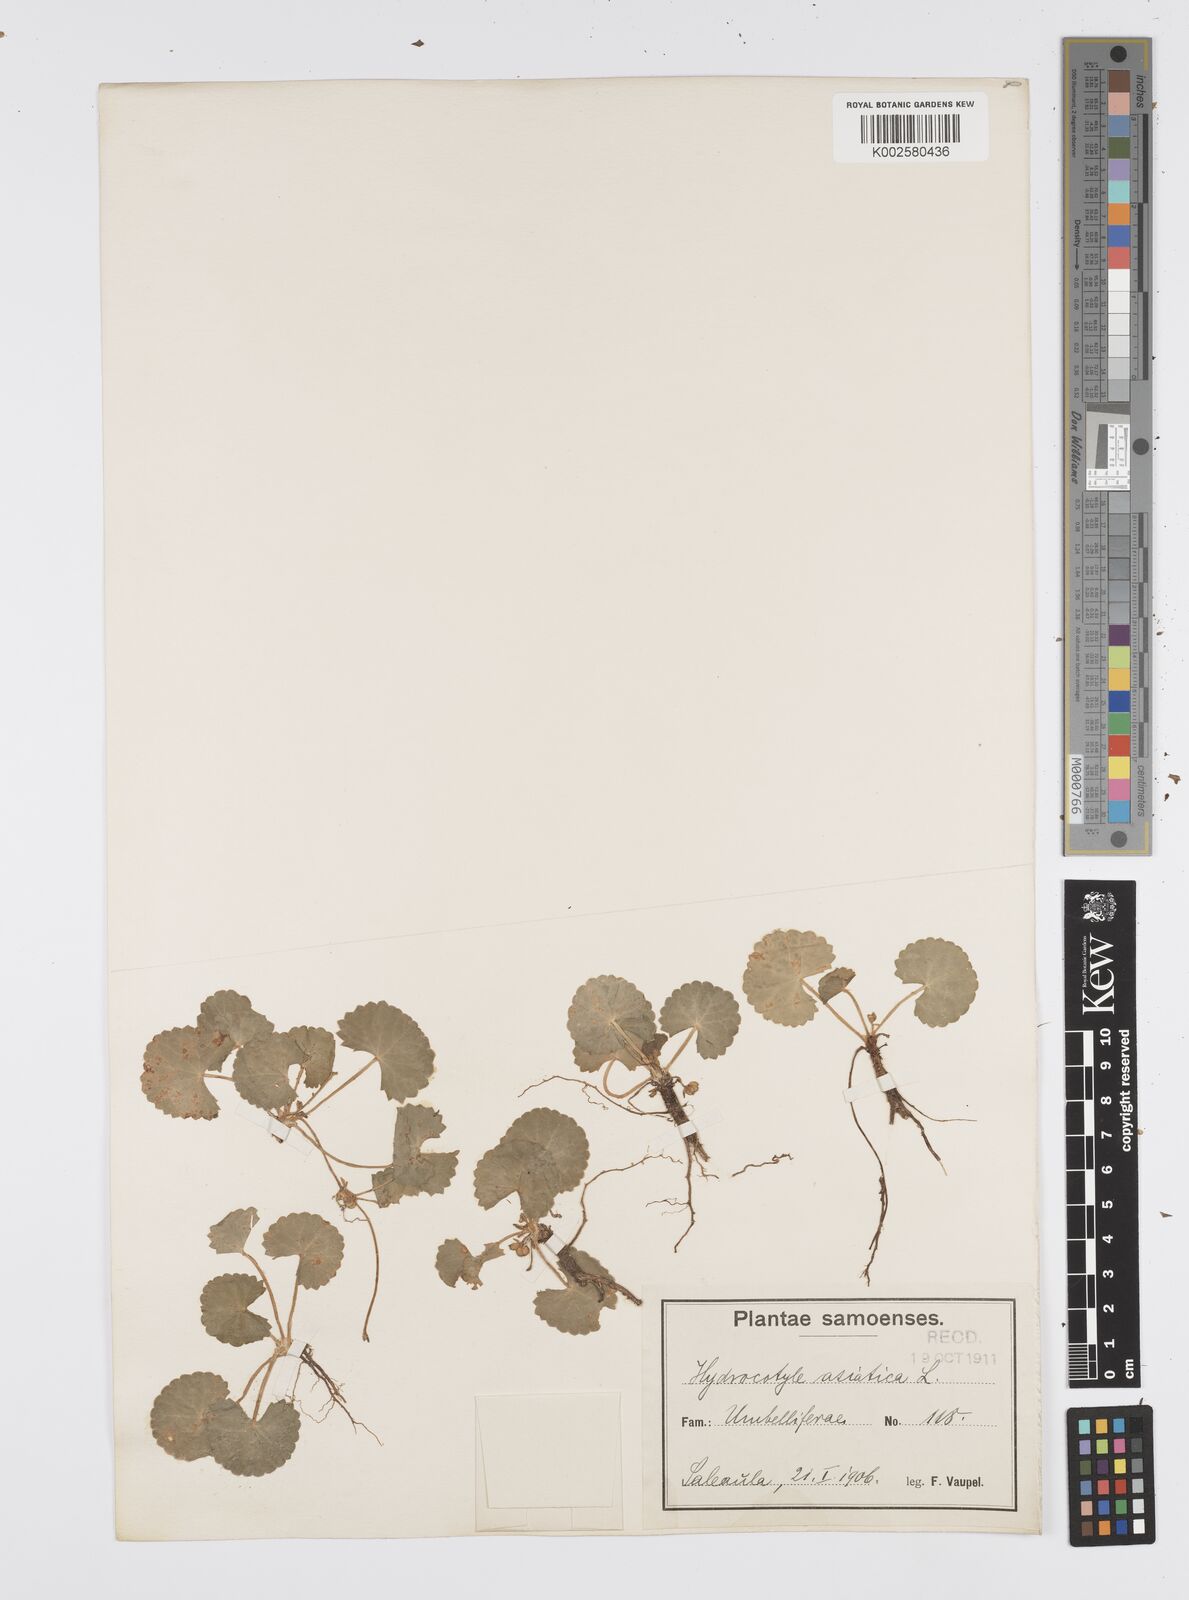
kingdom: Plantae
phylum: Tracheophyta
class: Magnoliopsida
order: Apiales
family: Apiaceae
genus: Centella
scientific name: Centella asiatica
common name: Spadeleaf
